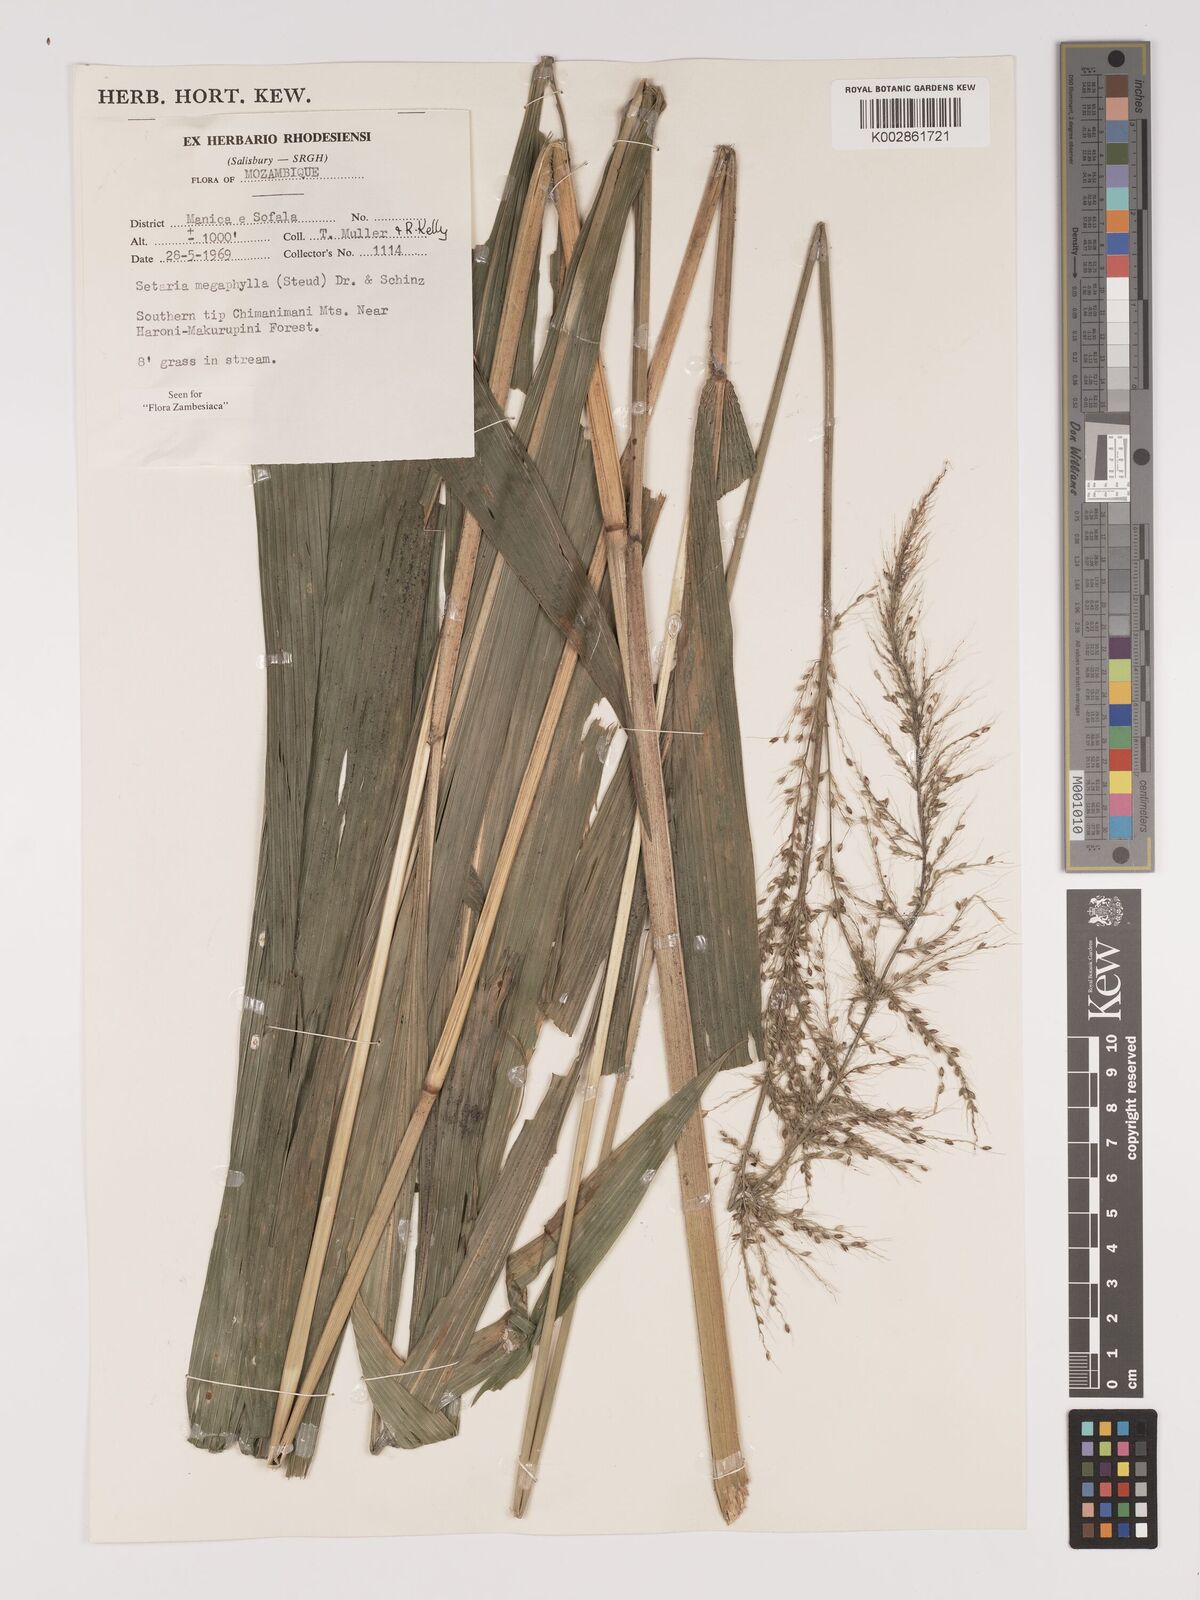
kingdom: Plantae
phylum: Tracheophyta
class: Liliopsida
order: Poales
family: Poaceae
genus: Setaria
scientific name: Setaria megaphylla
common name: Bigleaf bristlegrass
